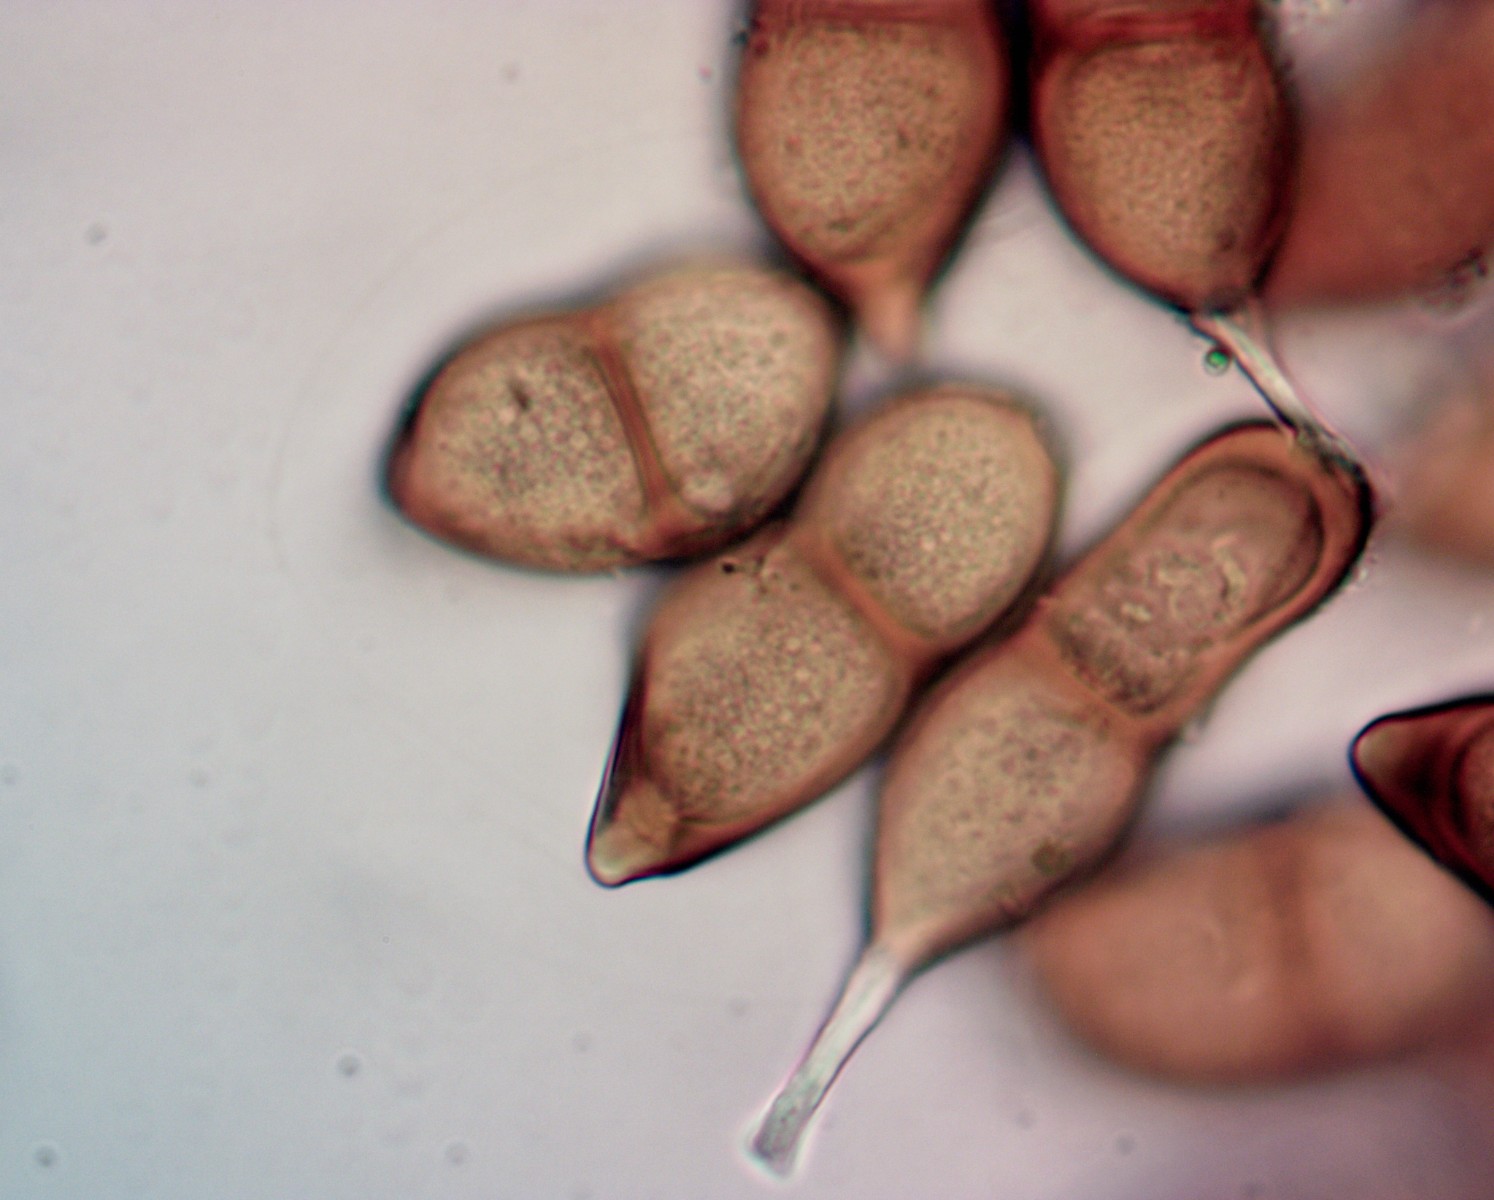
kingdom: Fungi
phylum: Basidiomycota
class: Pucciniomycetes
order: Pucciniales
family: Pucciniaceae
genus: Puccinia
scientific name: Puccinia glechomatis
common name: Ground ivy rust
